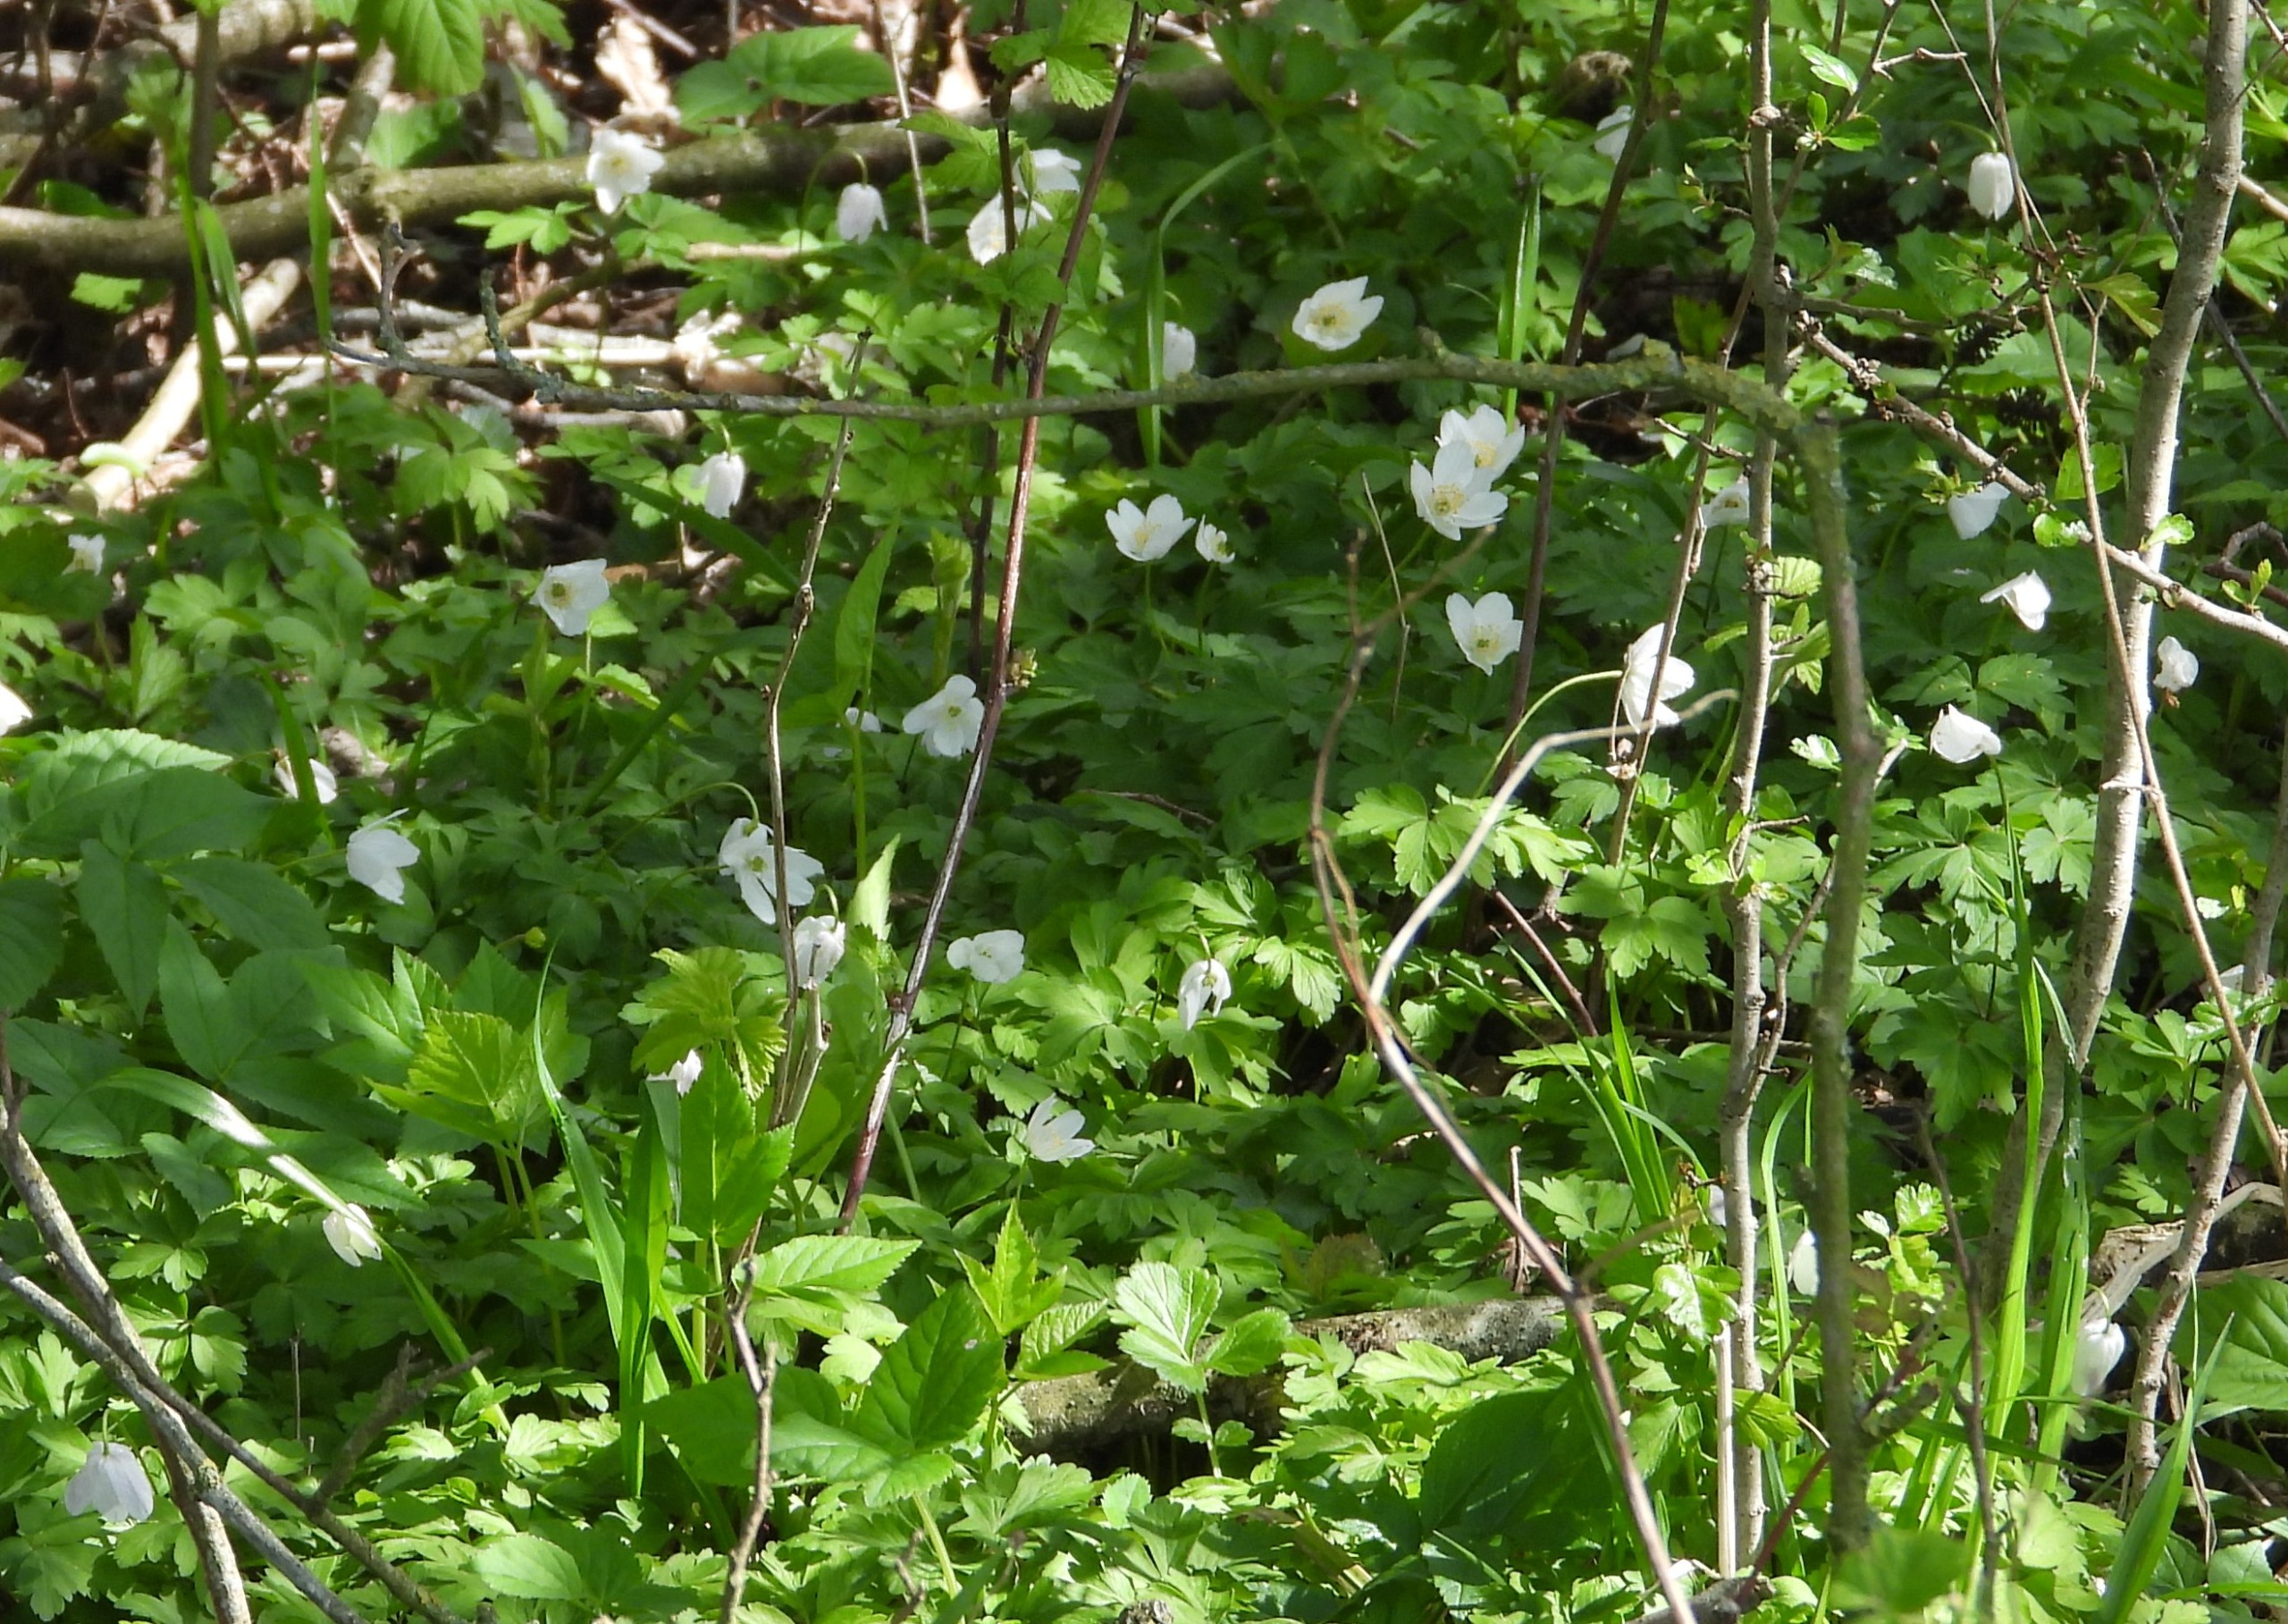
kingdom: Plantae
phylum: Tracheophyta
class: Magnoliopsida
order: Ranunculales
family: Ranunculaceae
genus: Anemone
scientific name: Anemone nemorosa
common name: Hvid anemone
